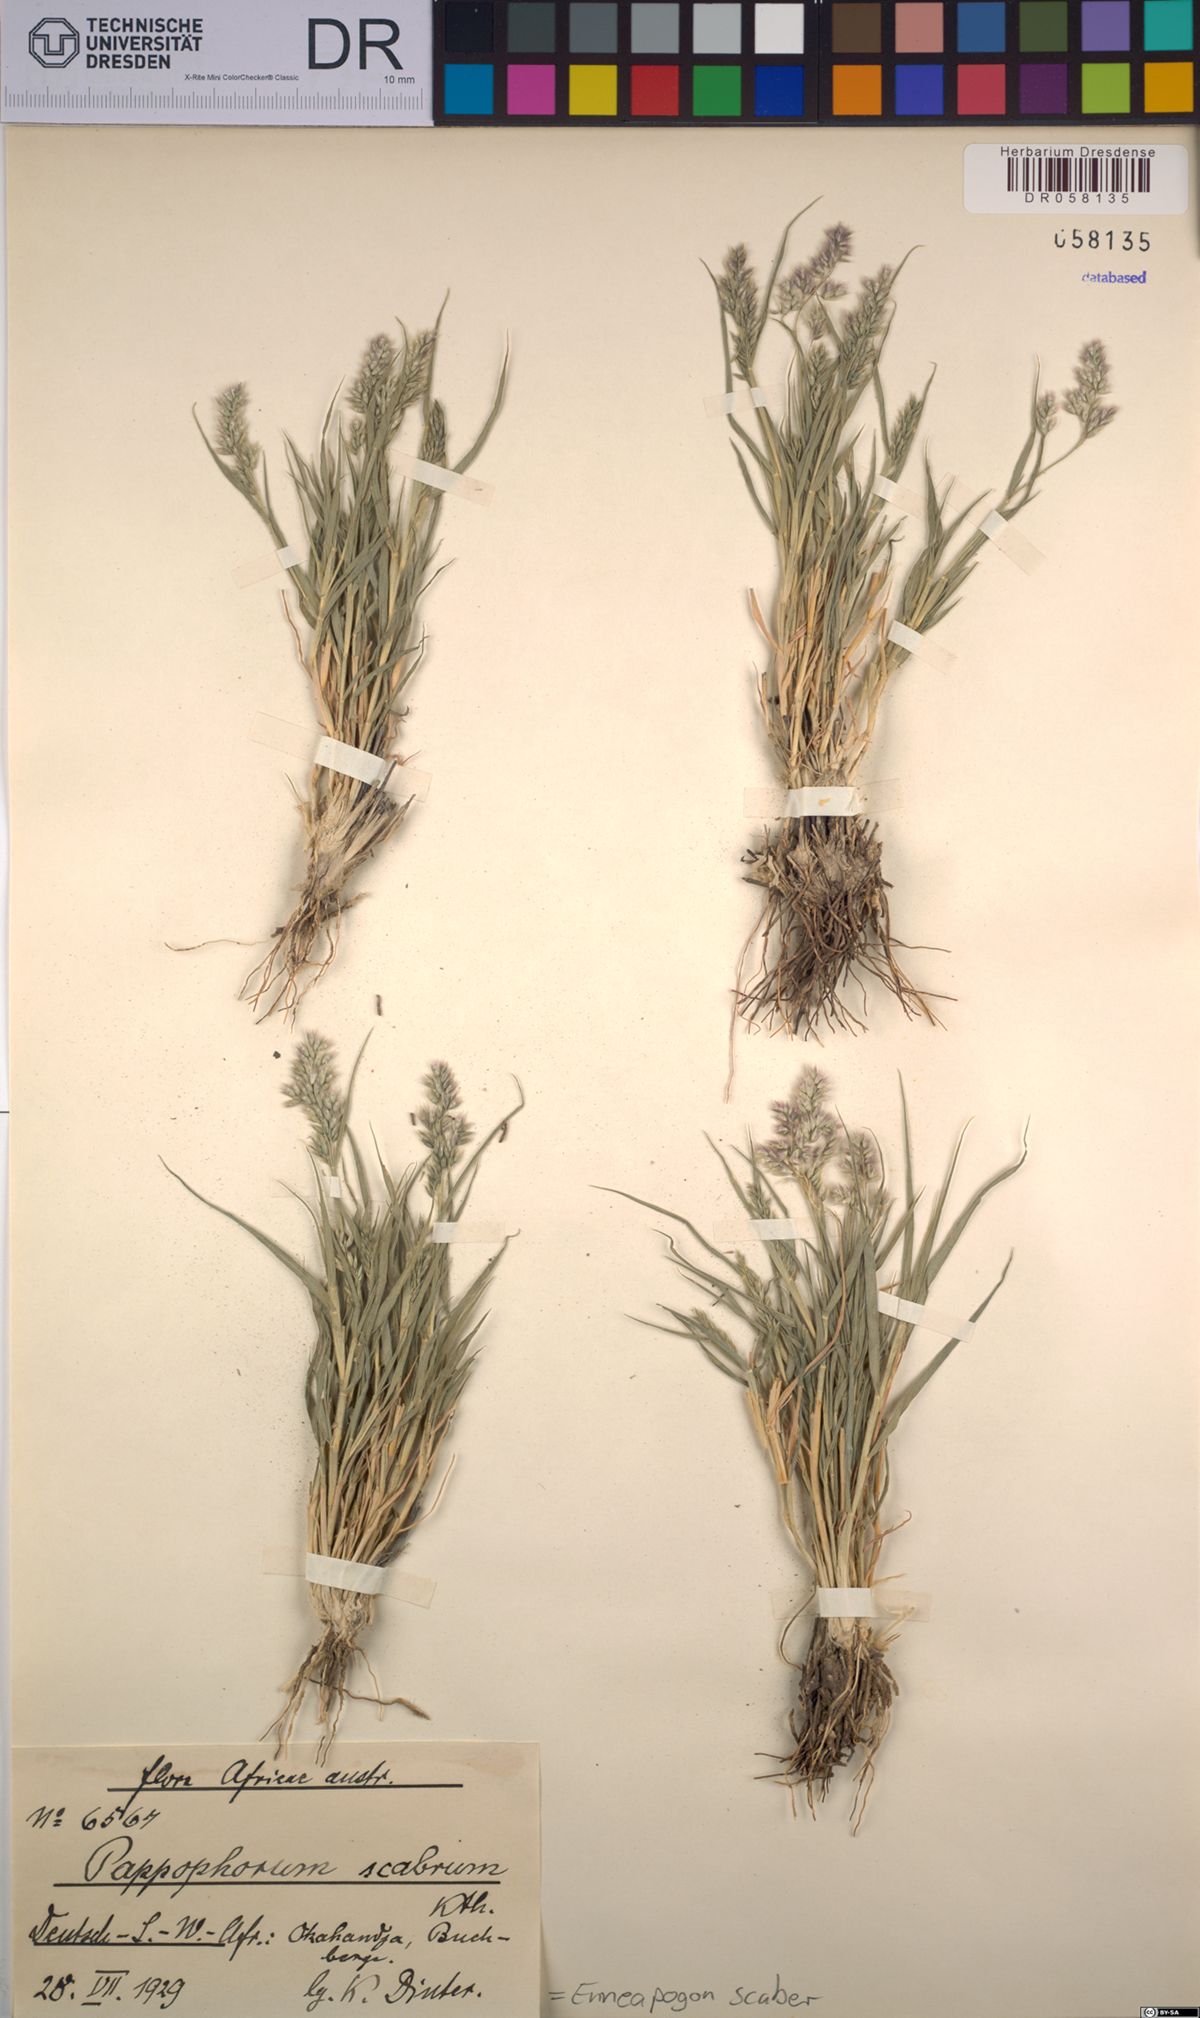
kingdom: Plantae
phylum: Tracheophyta
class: Liliopsida
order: Poales
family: Poaceae
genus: Enneapogon
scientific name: Enneapogon scaber
